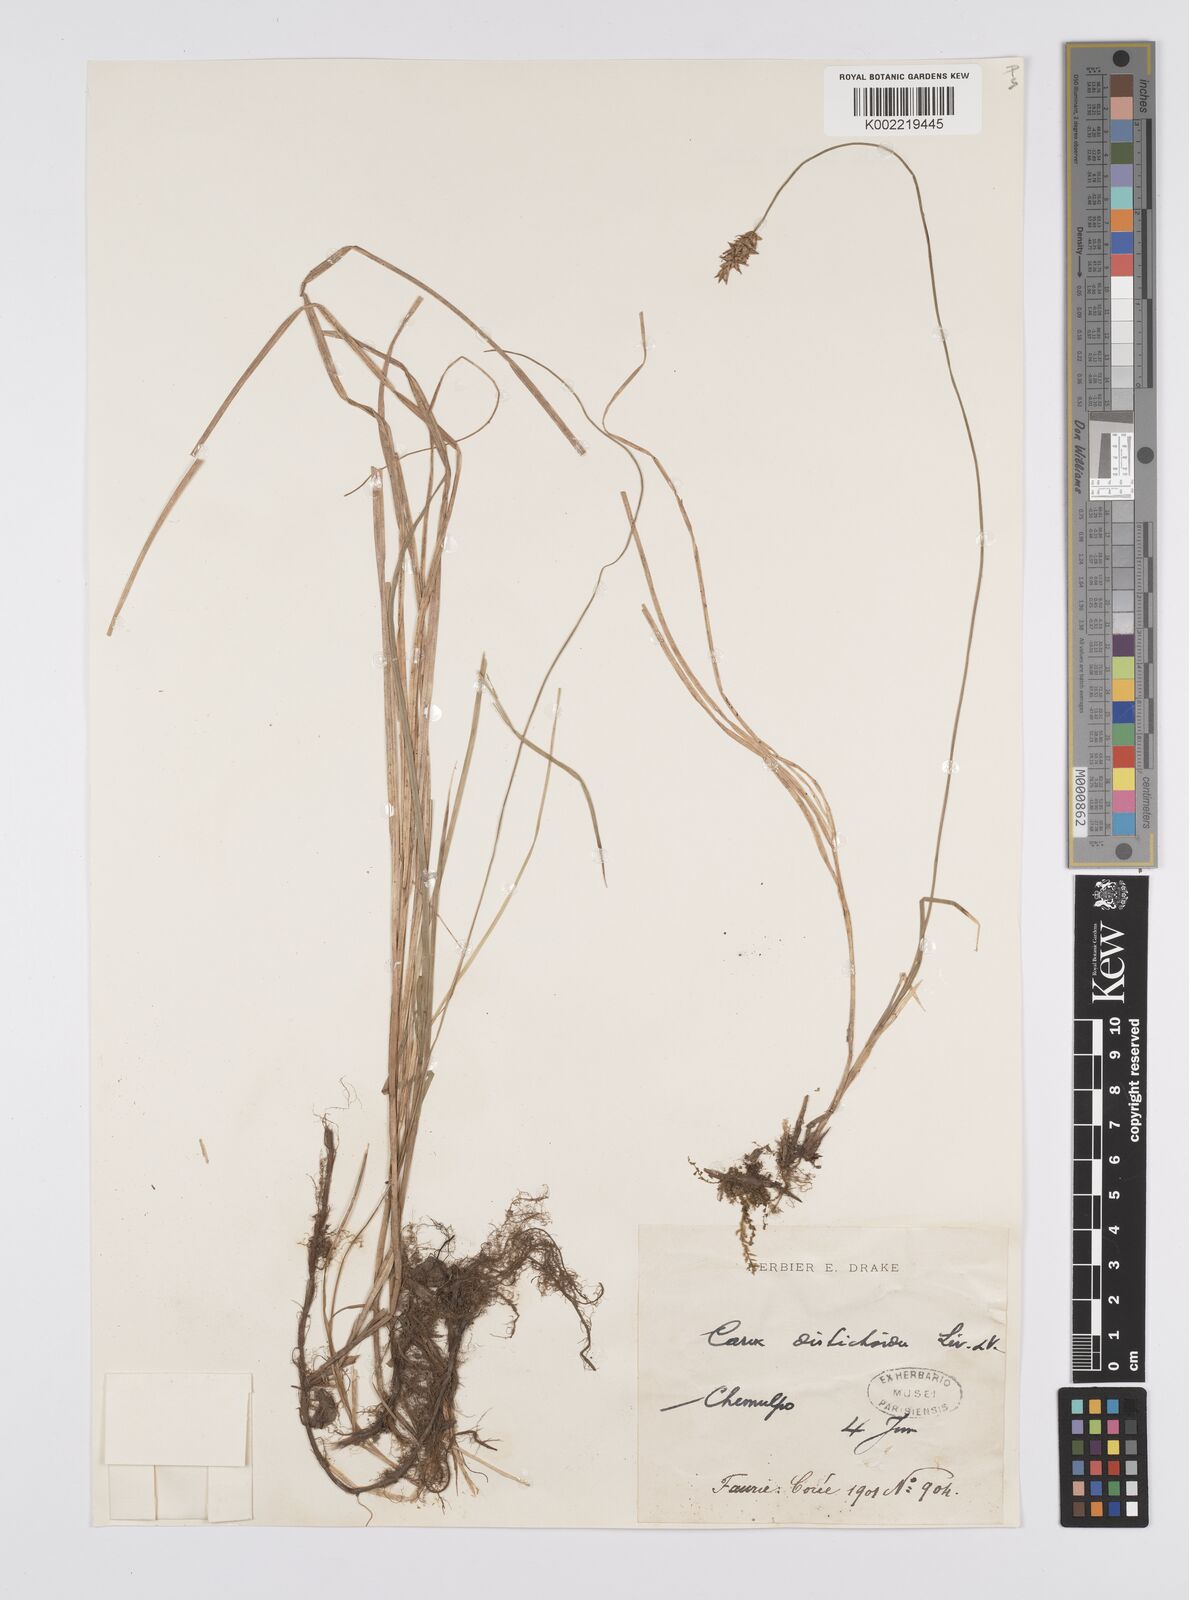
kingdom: Plantae
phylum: Tracheophyta
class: Liliopsida
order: Poales
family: Cyperaceae
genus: Carex
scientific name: Carex disticha
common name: Brown sedge
